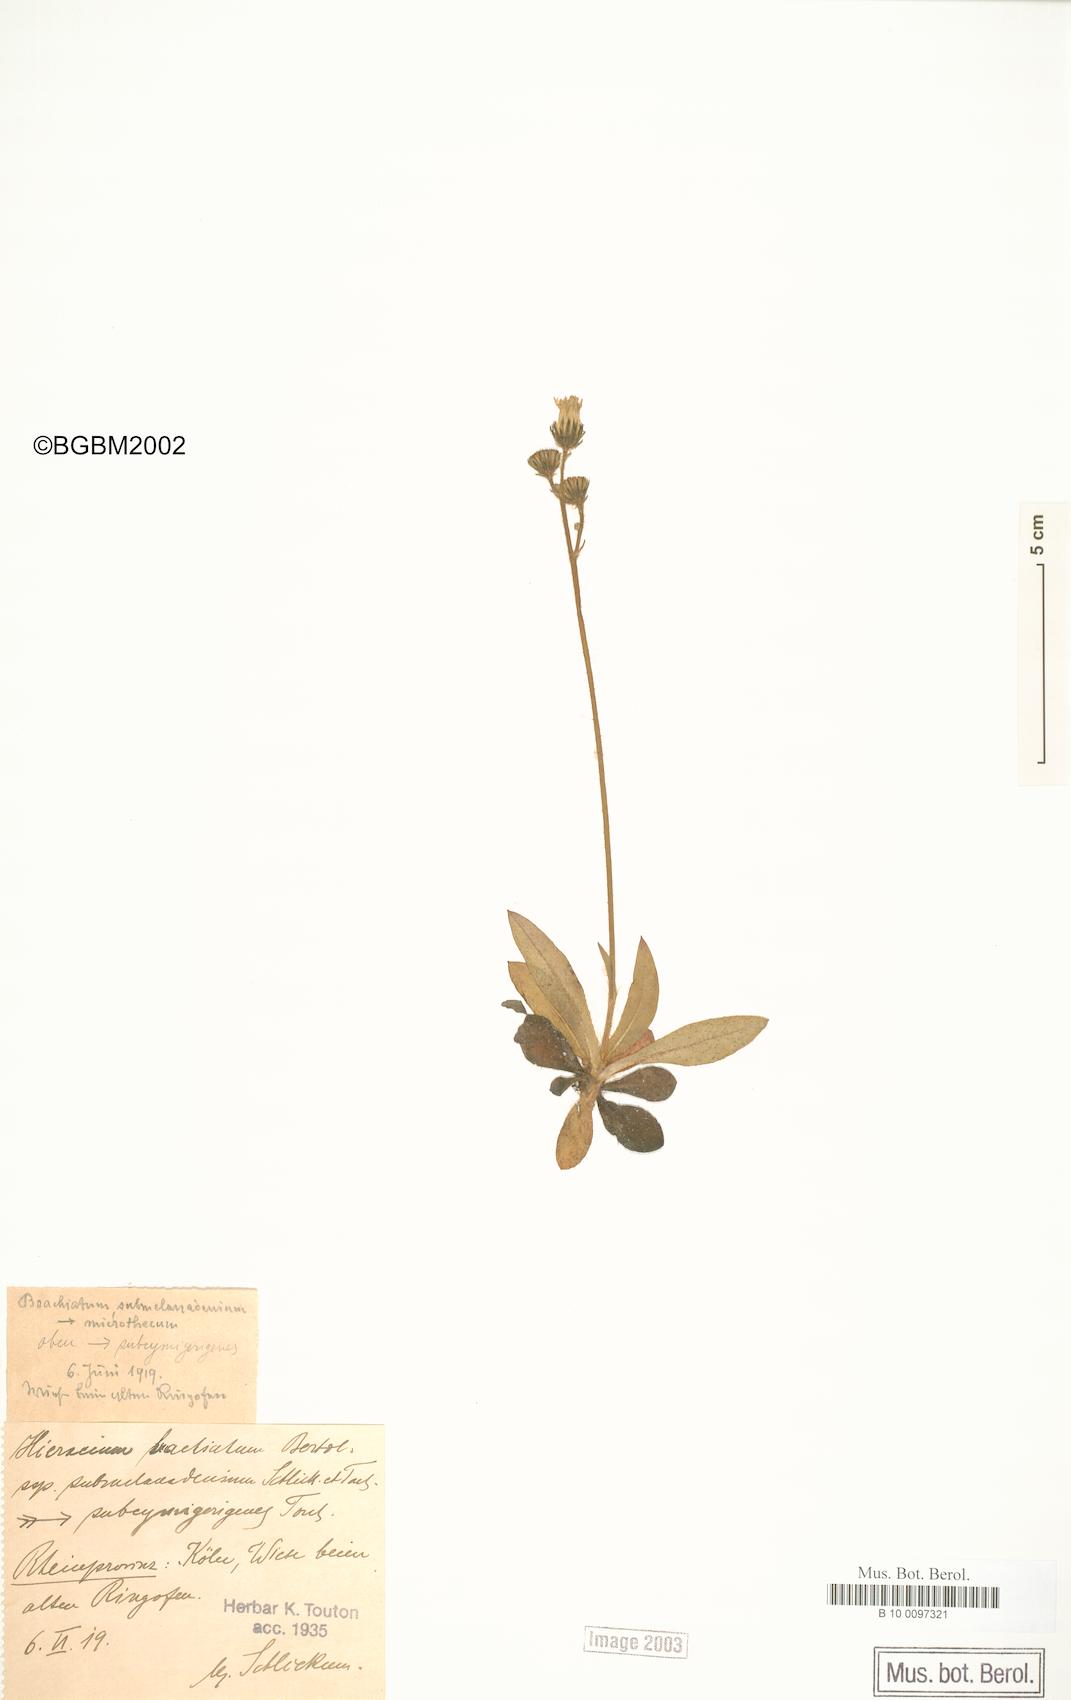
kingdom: Plantae
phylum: Tracheophyta
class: Magnoliopsida
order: Asterales
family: Asteraceae
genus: Pilosella
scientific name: Pilosella acutifolia
